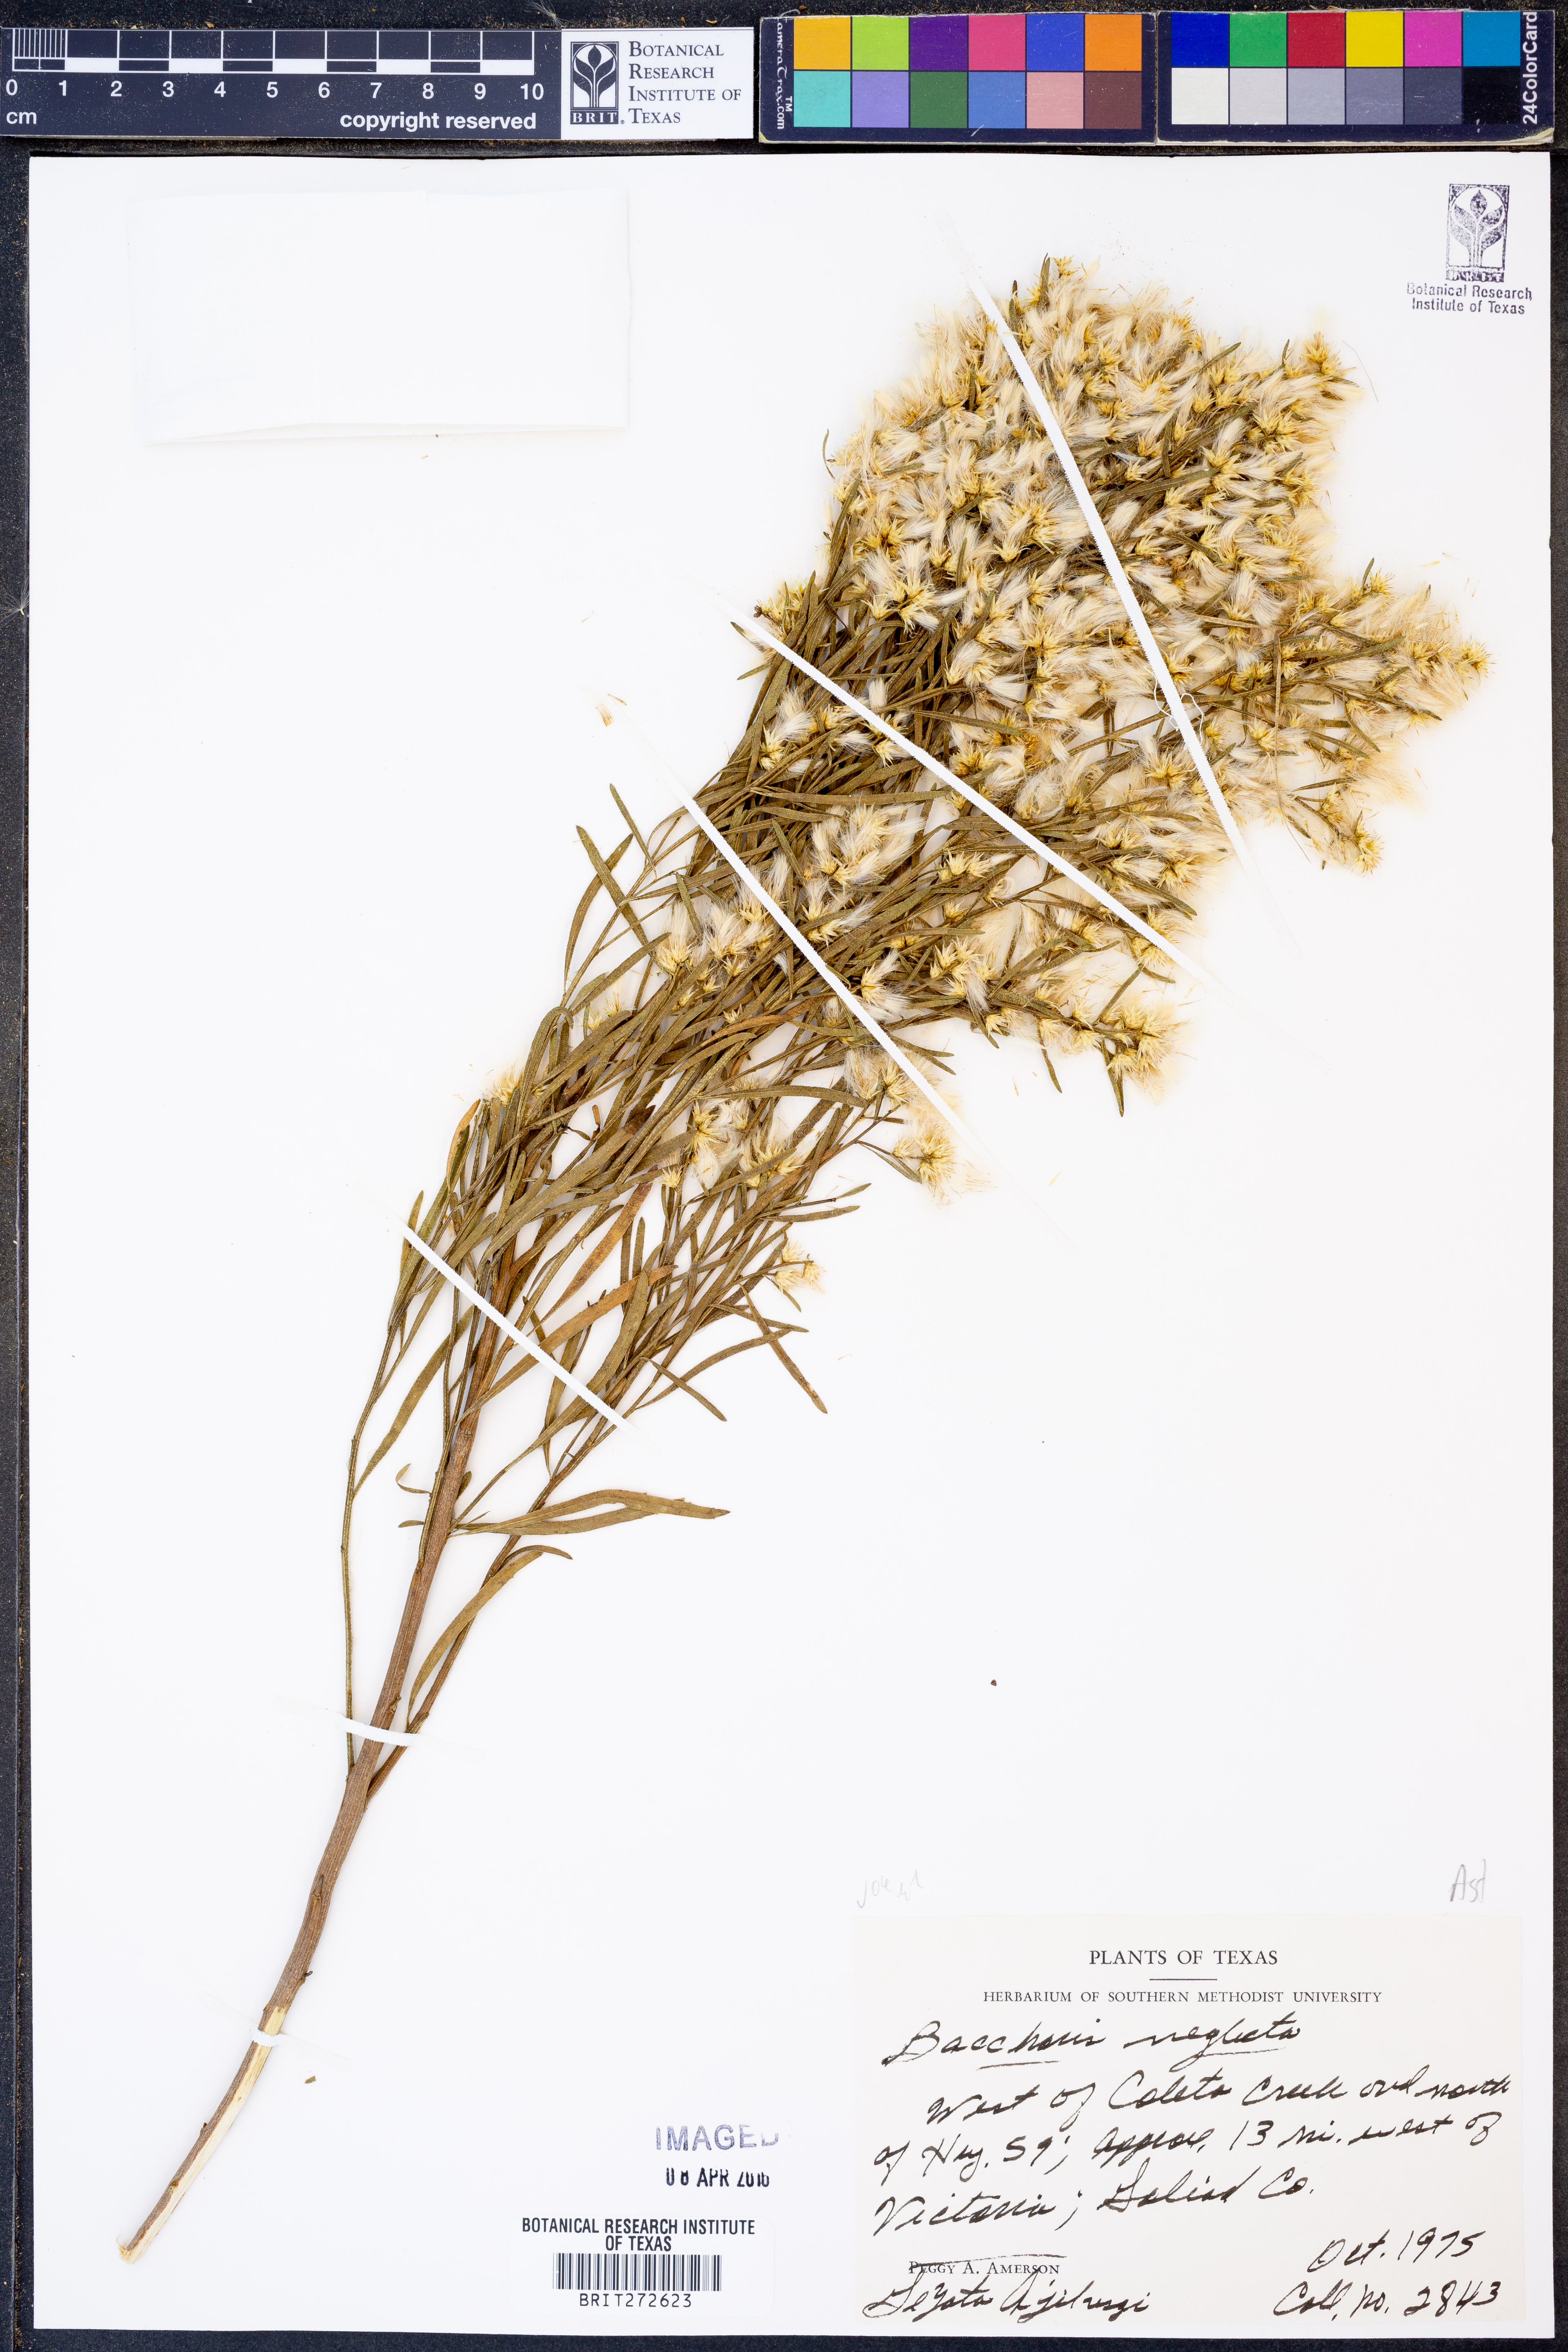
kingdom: Plantae
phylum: Tracheophyta
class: Magnoliopsida
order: Asterales
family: Asteraceae
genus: Baccharis
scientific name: Baccharis neglecta
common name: Roosevelt-weed
